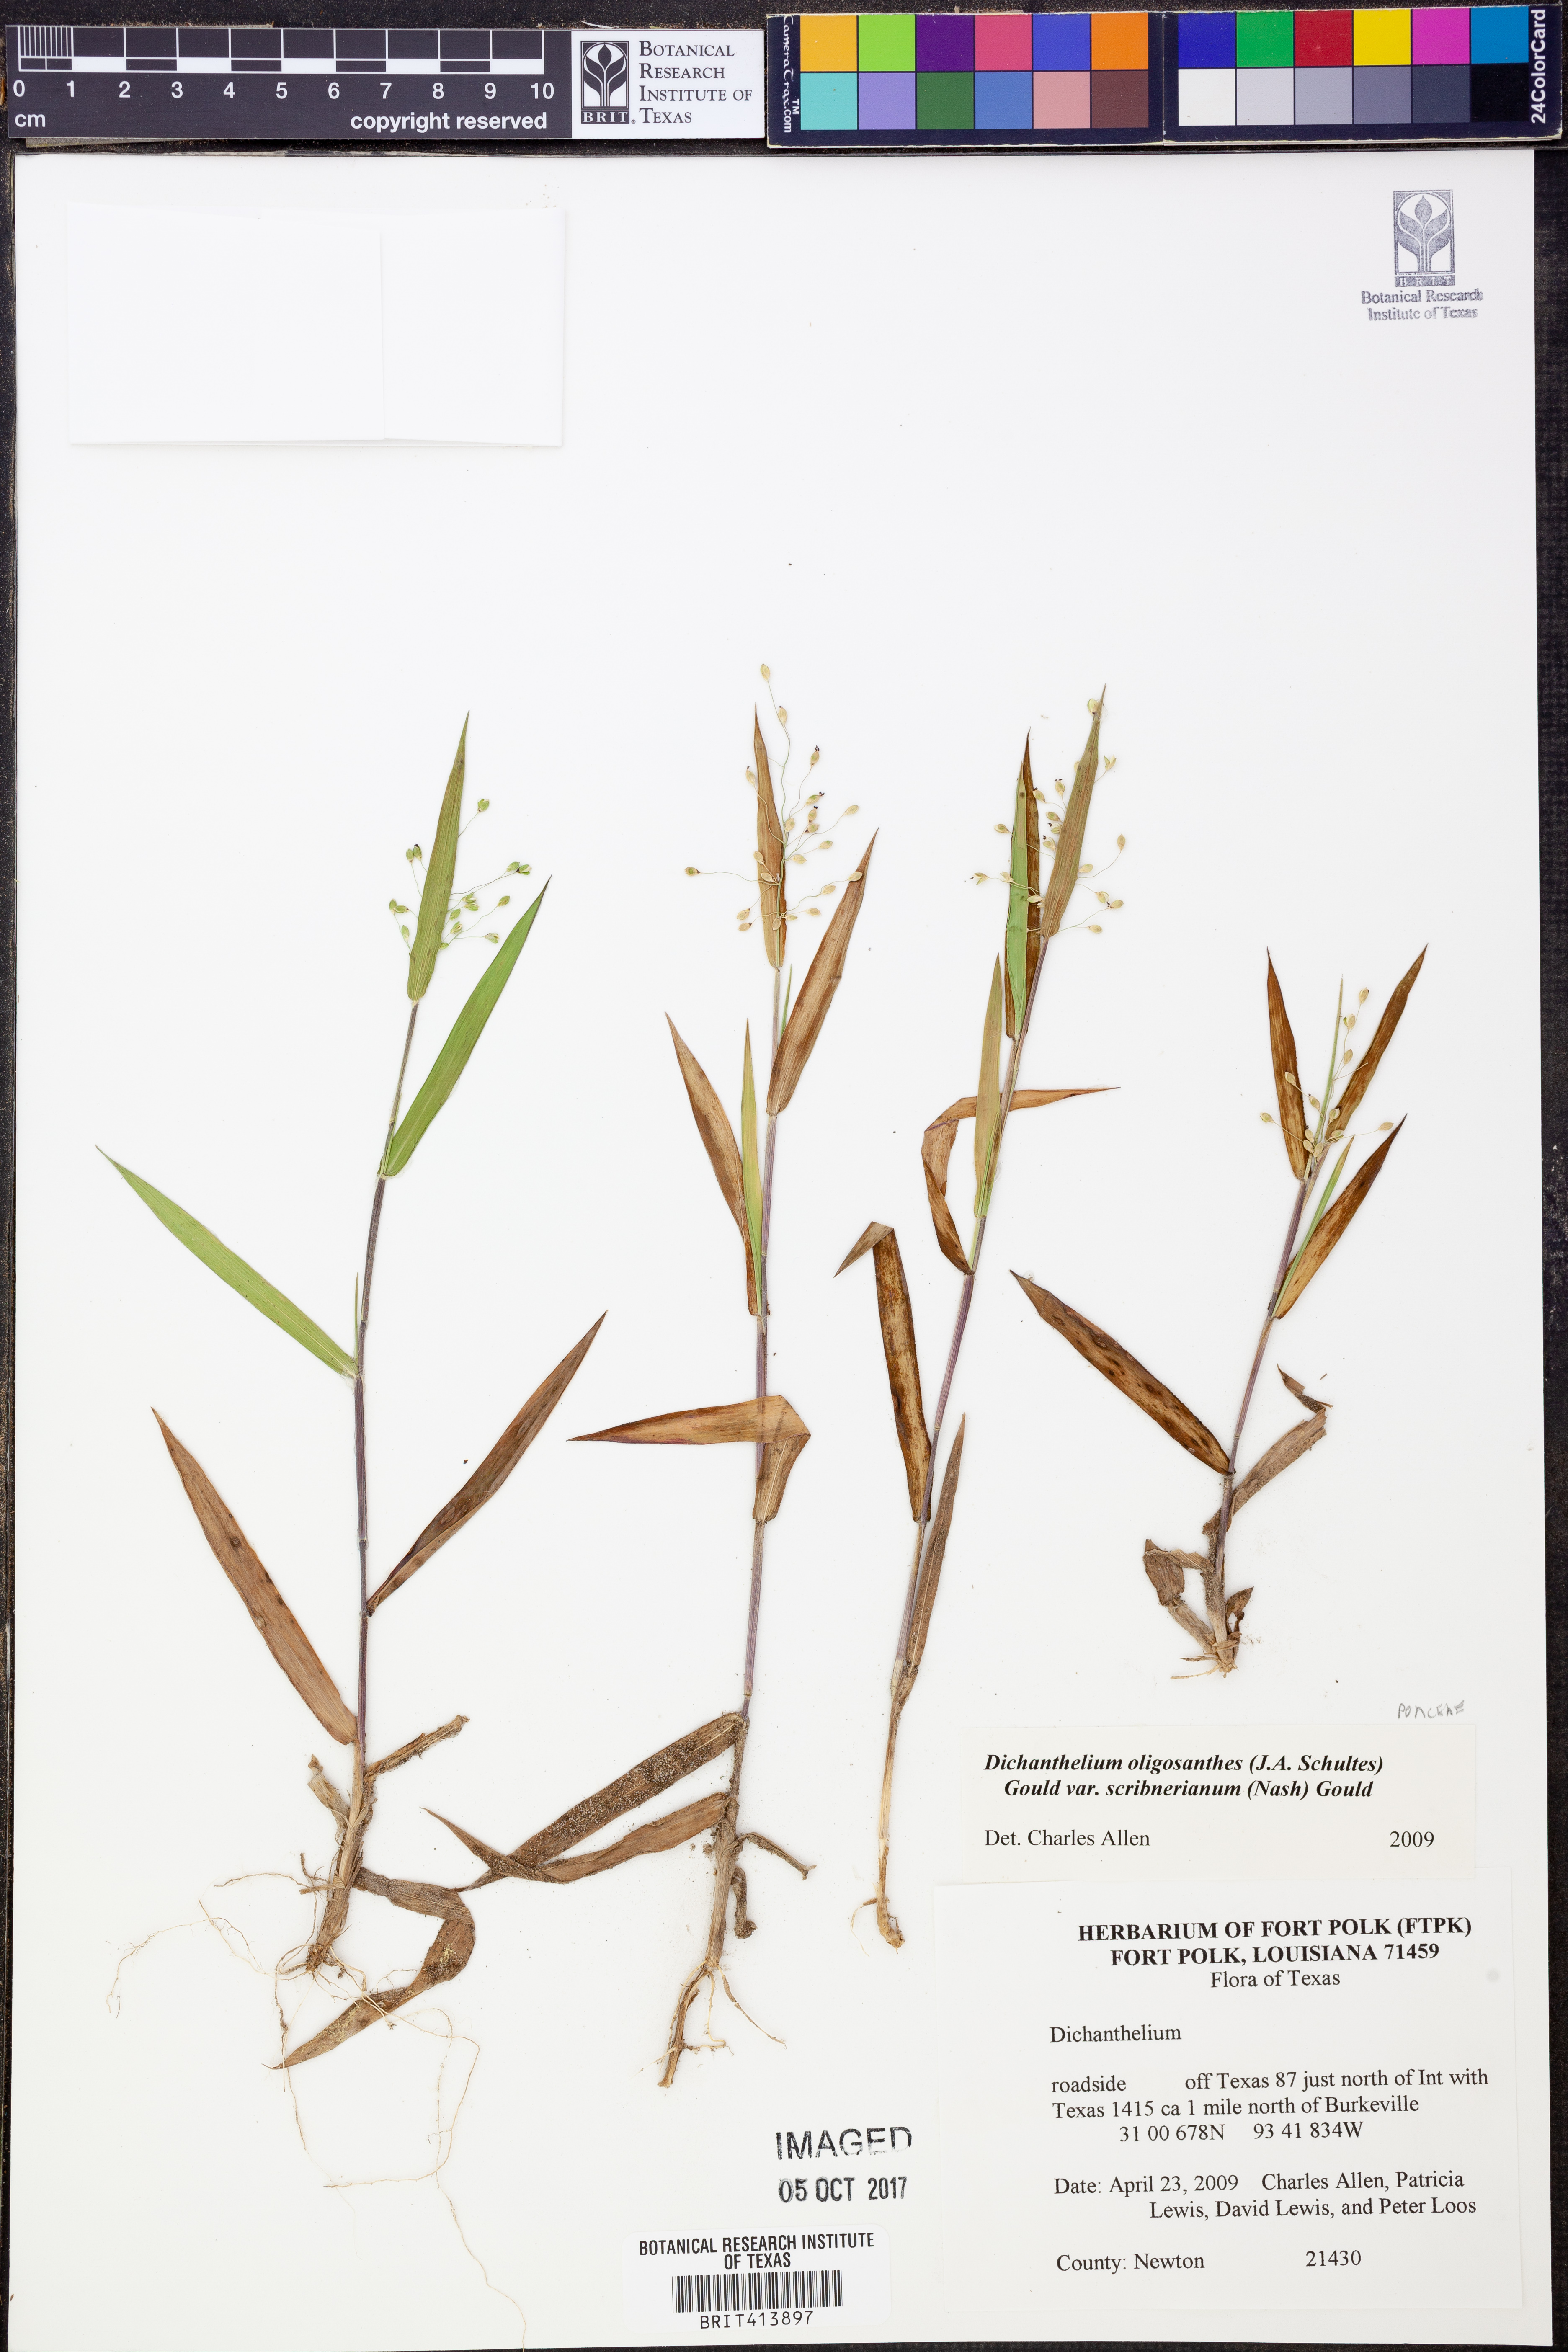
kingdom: Plantae
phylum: Tracheophyta
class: Liliopsida
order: Poales
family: Poaceae
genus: Dichanthelium
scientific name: Dichanthelium scribnerianum
